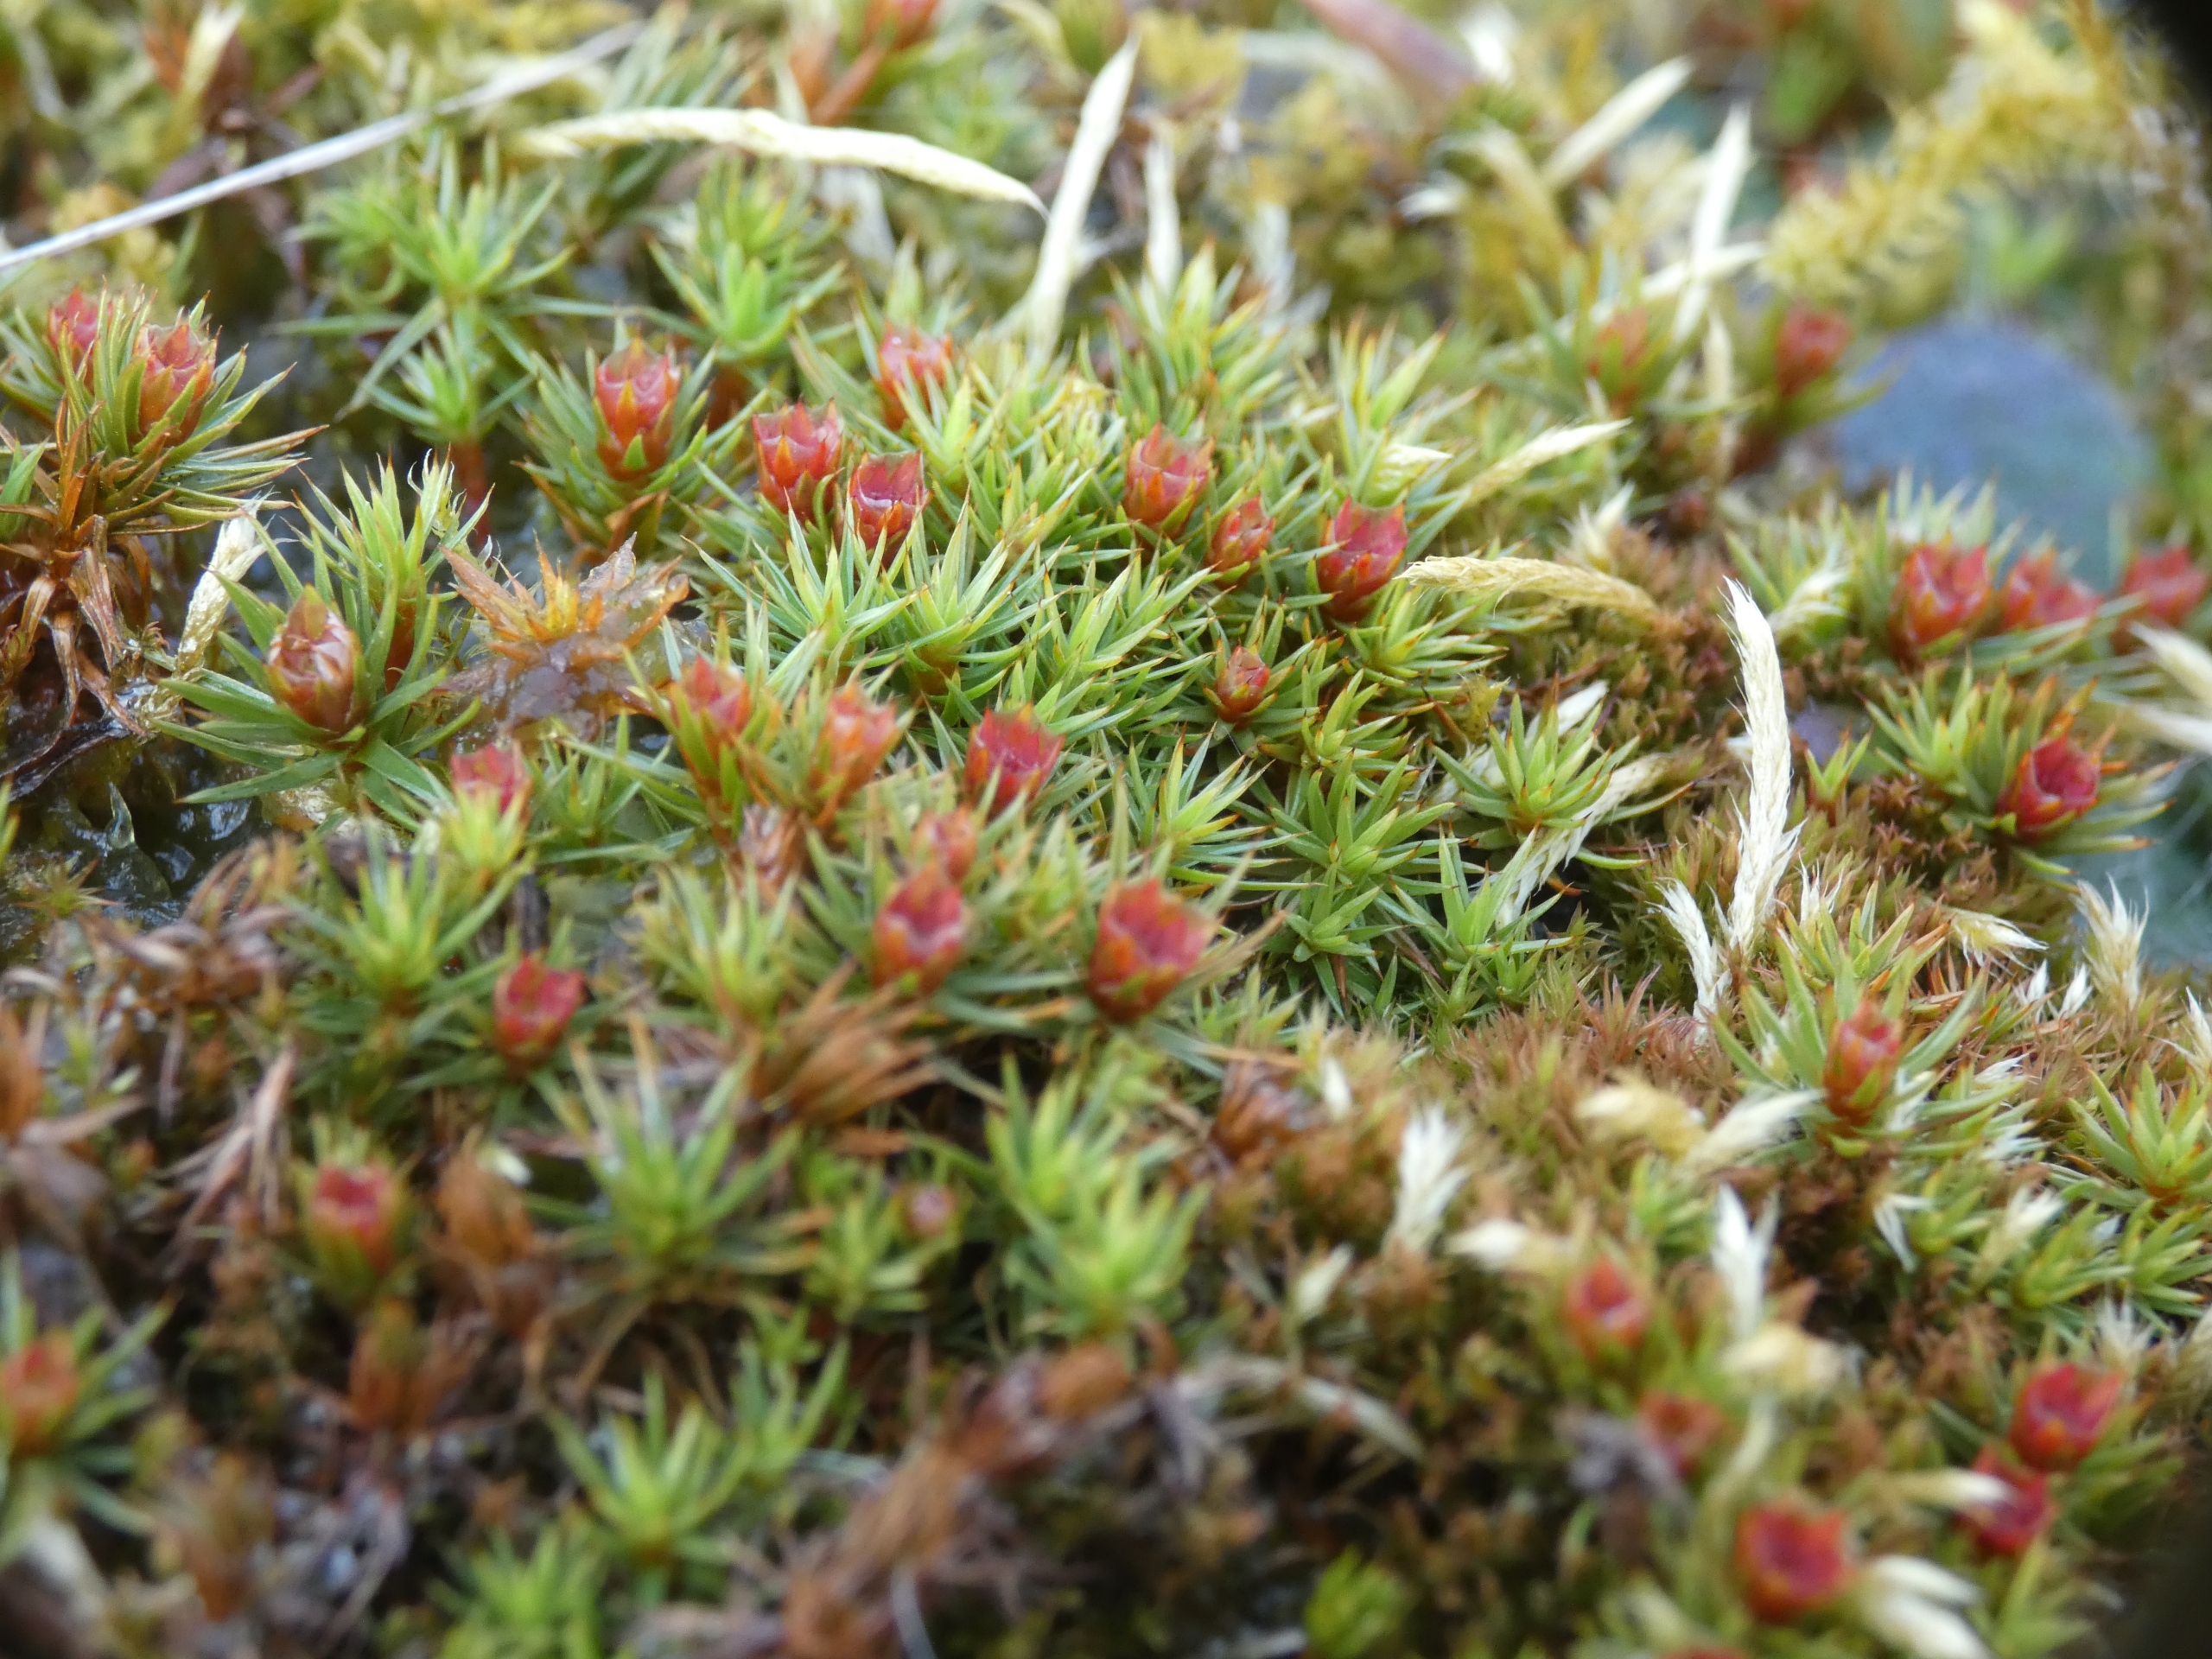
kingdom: Plantae
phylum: Bryophyta
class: Polytrichopsida
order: Polytrichales
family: Polytrichaceae
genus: Polytrichum
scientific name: Polytrichum juniperinum
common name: Ene-jomfruhår
